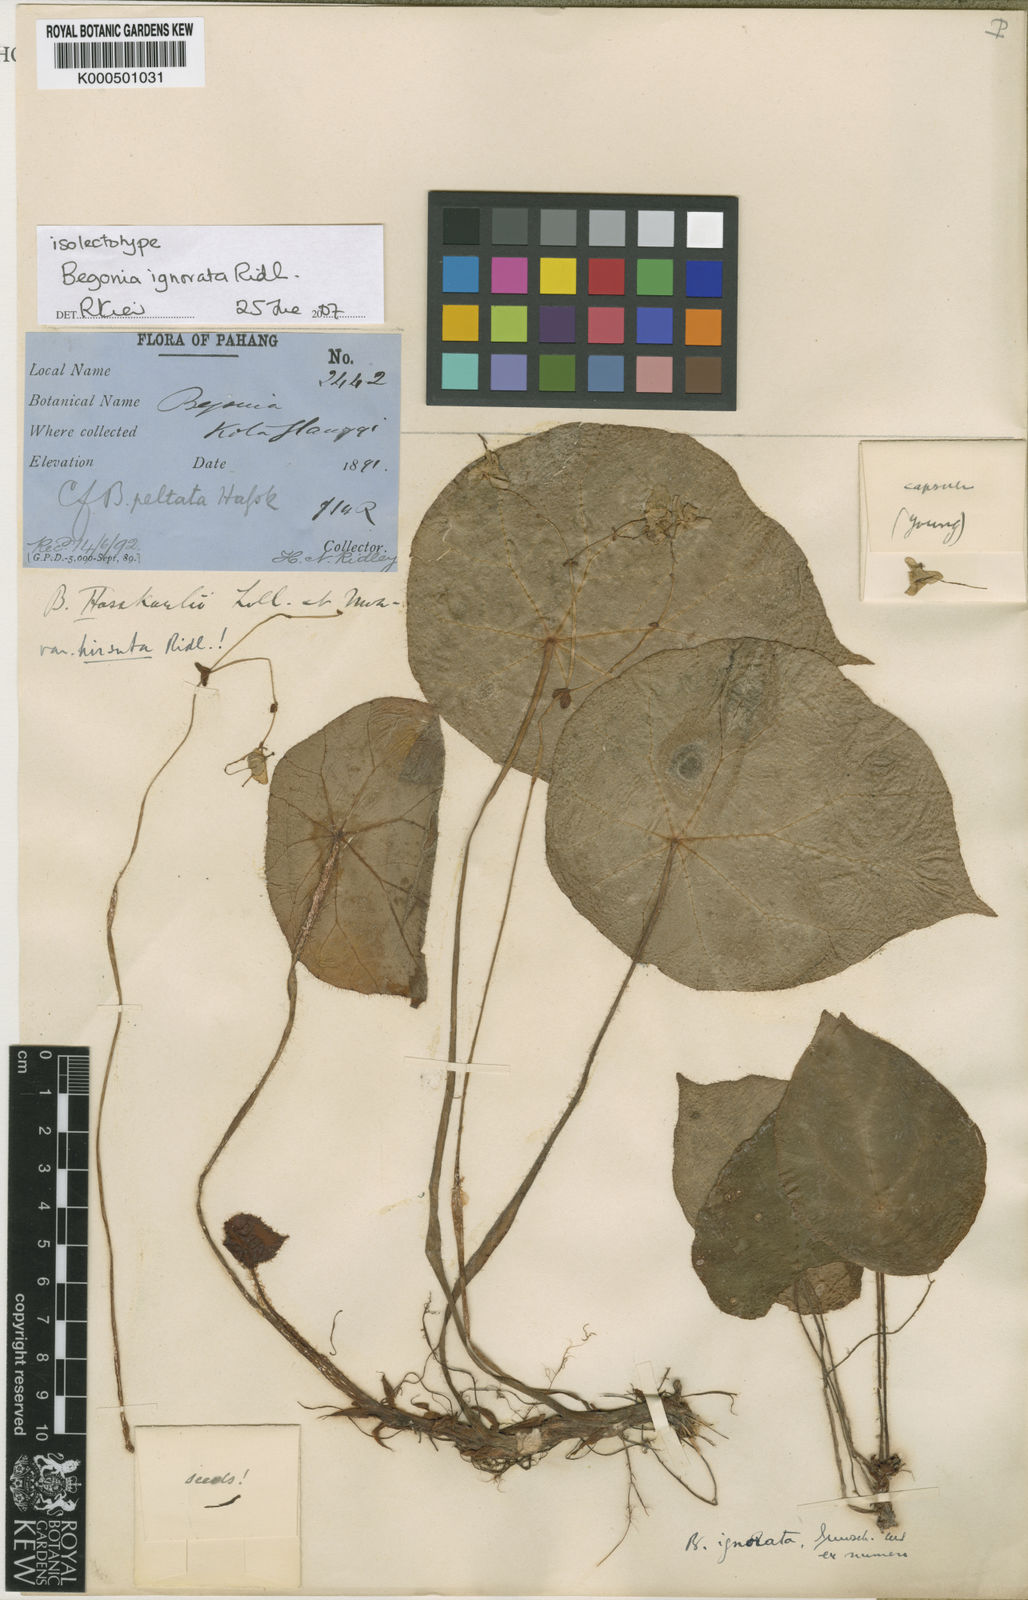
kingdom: Plantae
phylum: Tracheophyta
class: Magnoliopsida
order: Cucurbitales
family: Begoniaceae
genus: Begonia
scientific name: Begonia ignorata
